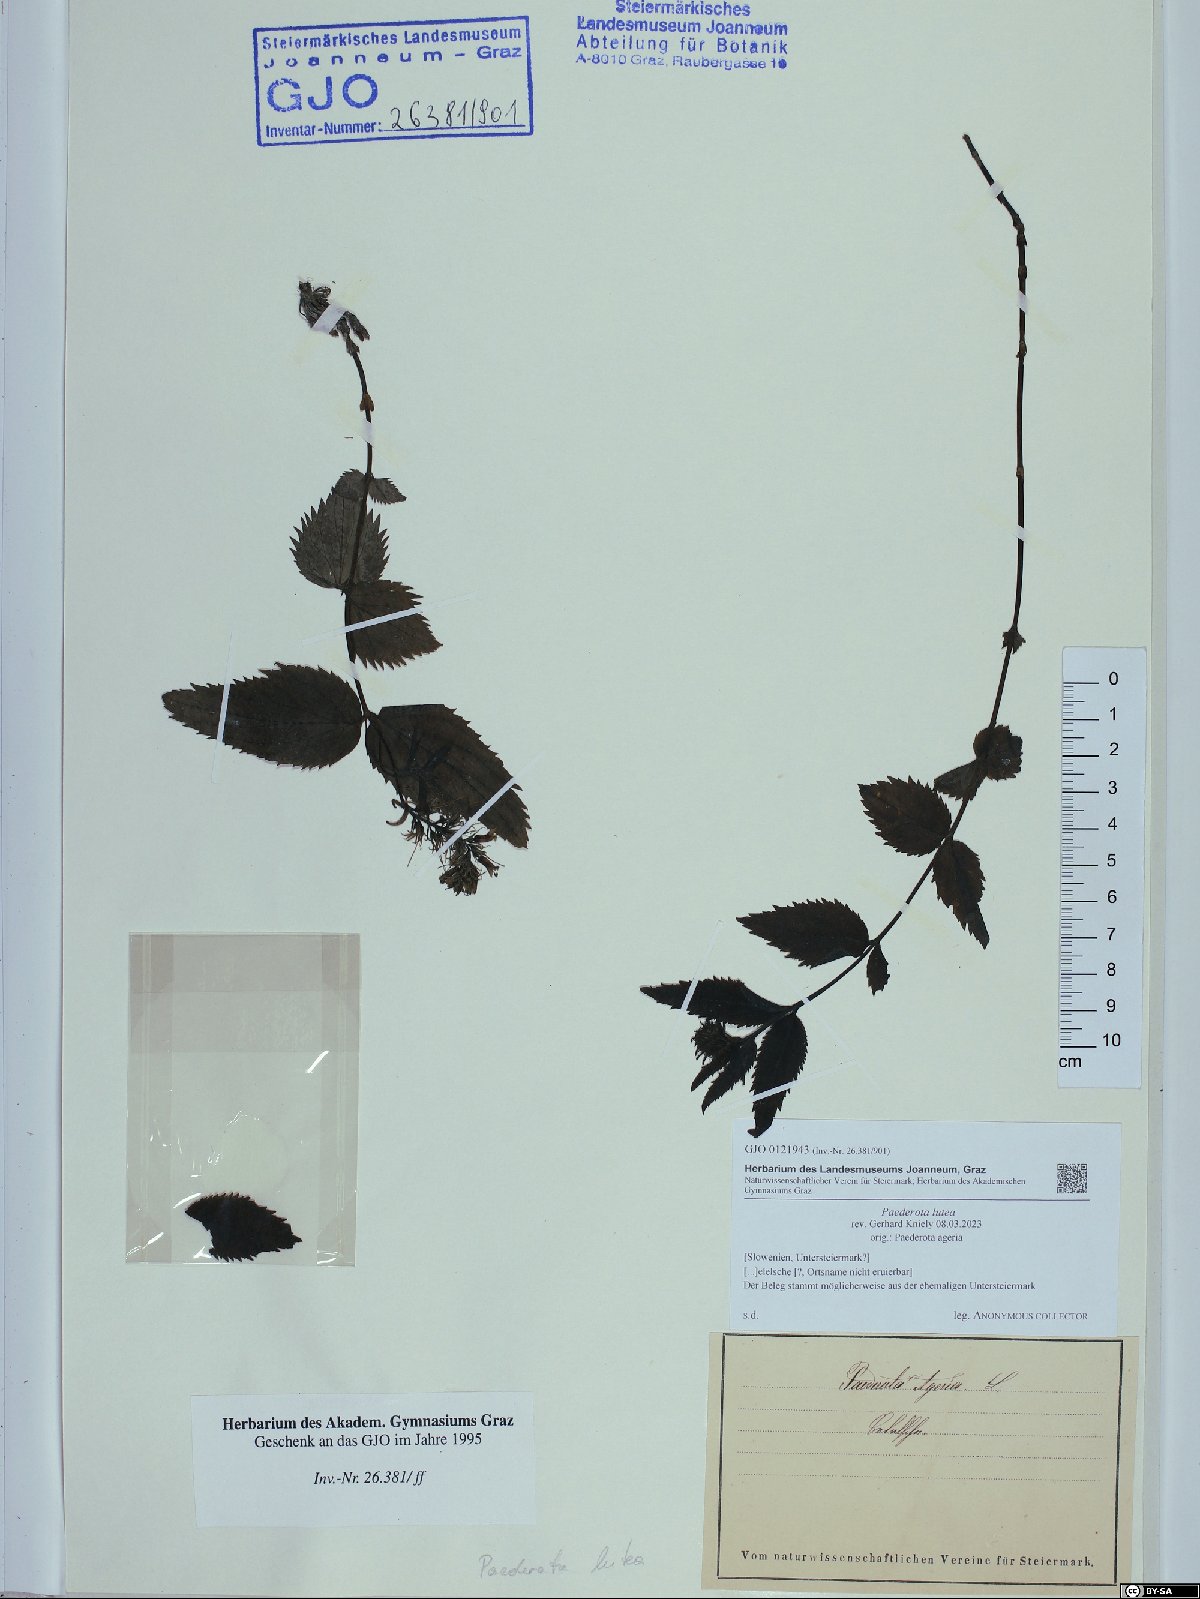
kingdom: Plantae
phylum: Tracheophyta
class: Magnoliopsida
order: Lamiales
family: Plantaginaceae
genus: Paederota
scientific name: Paederota lutea
